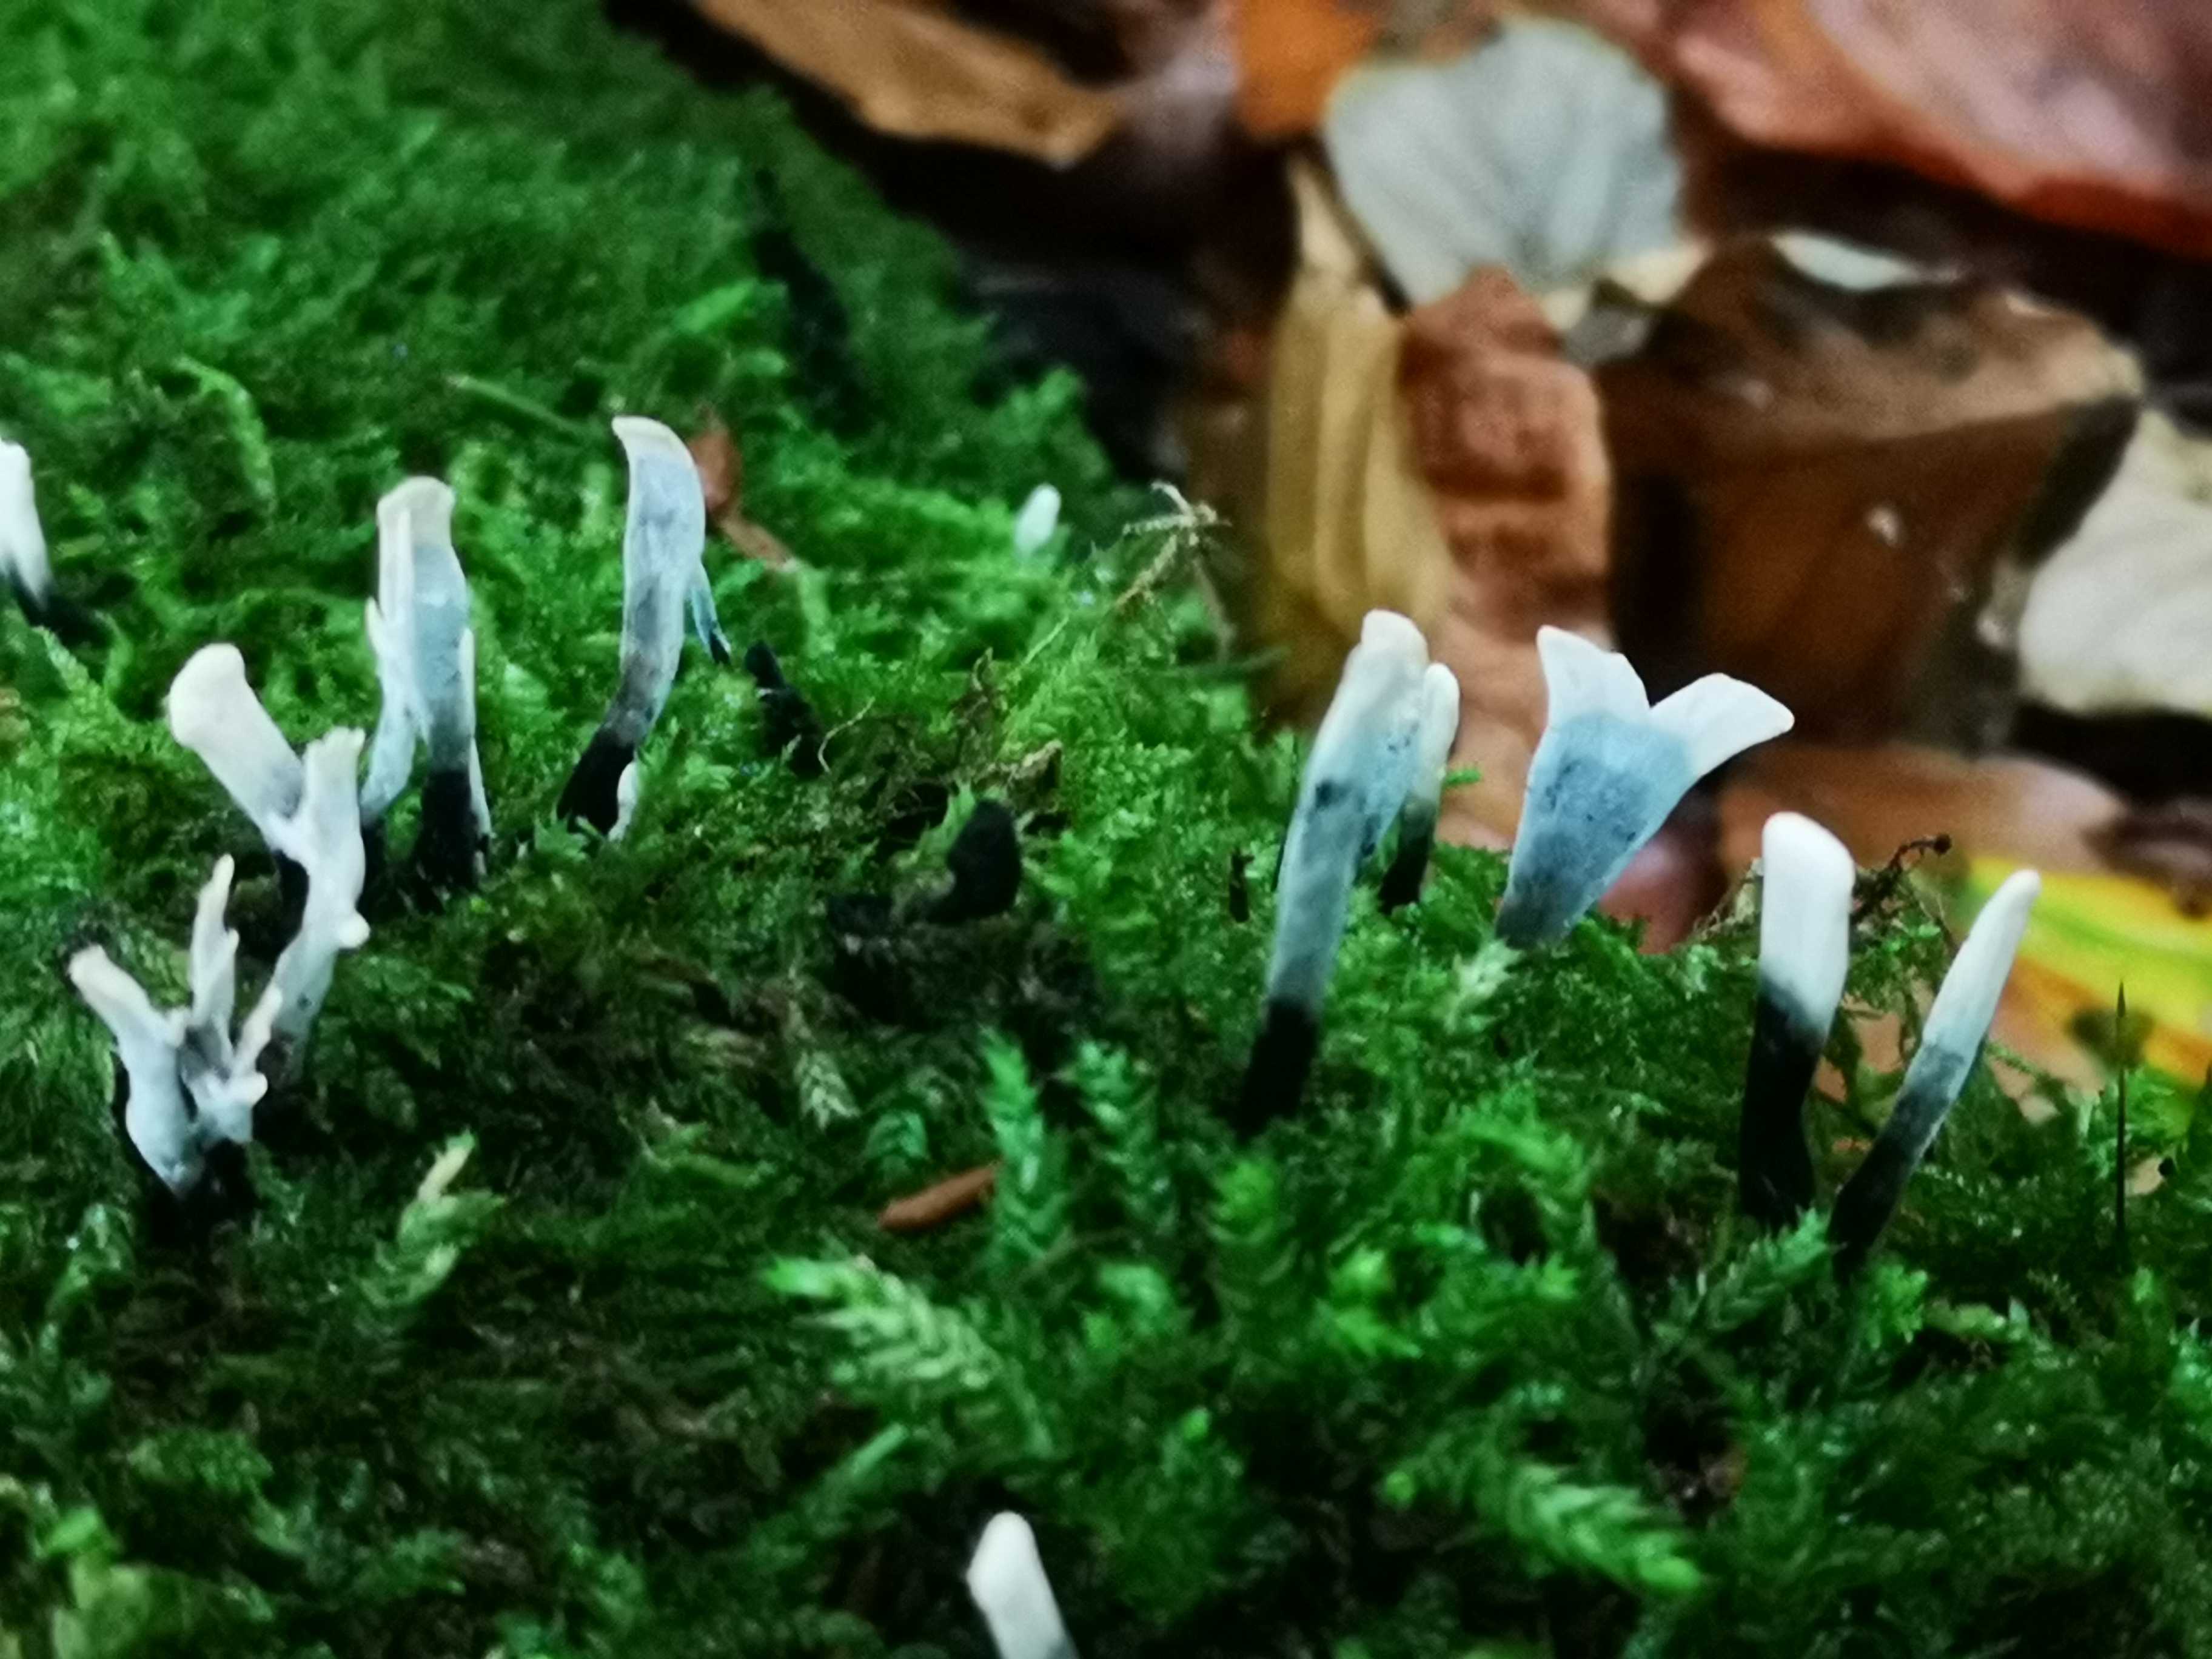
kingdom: Fungi
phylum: Ascomycota
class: Sordariomycetes
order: Xylariales
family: Xylariaceae
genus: Xylaria
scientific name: Xylaria hypoxylon
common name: grenet stødsvamp
